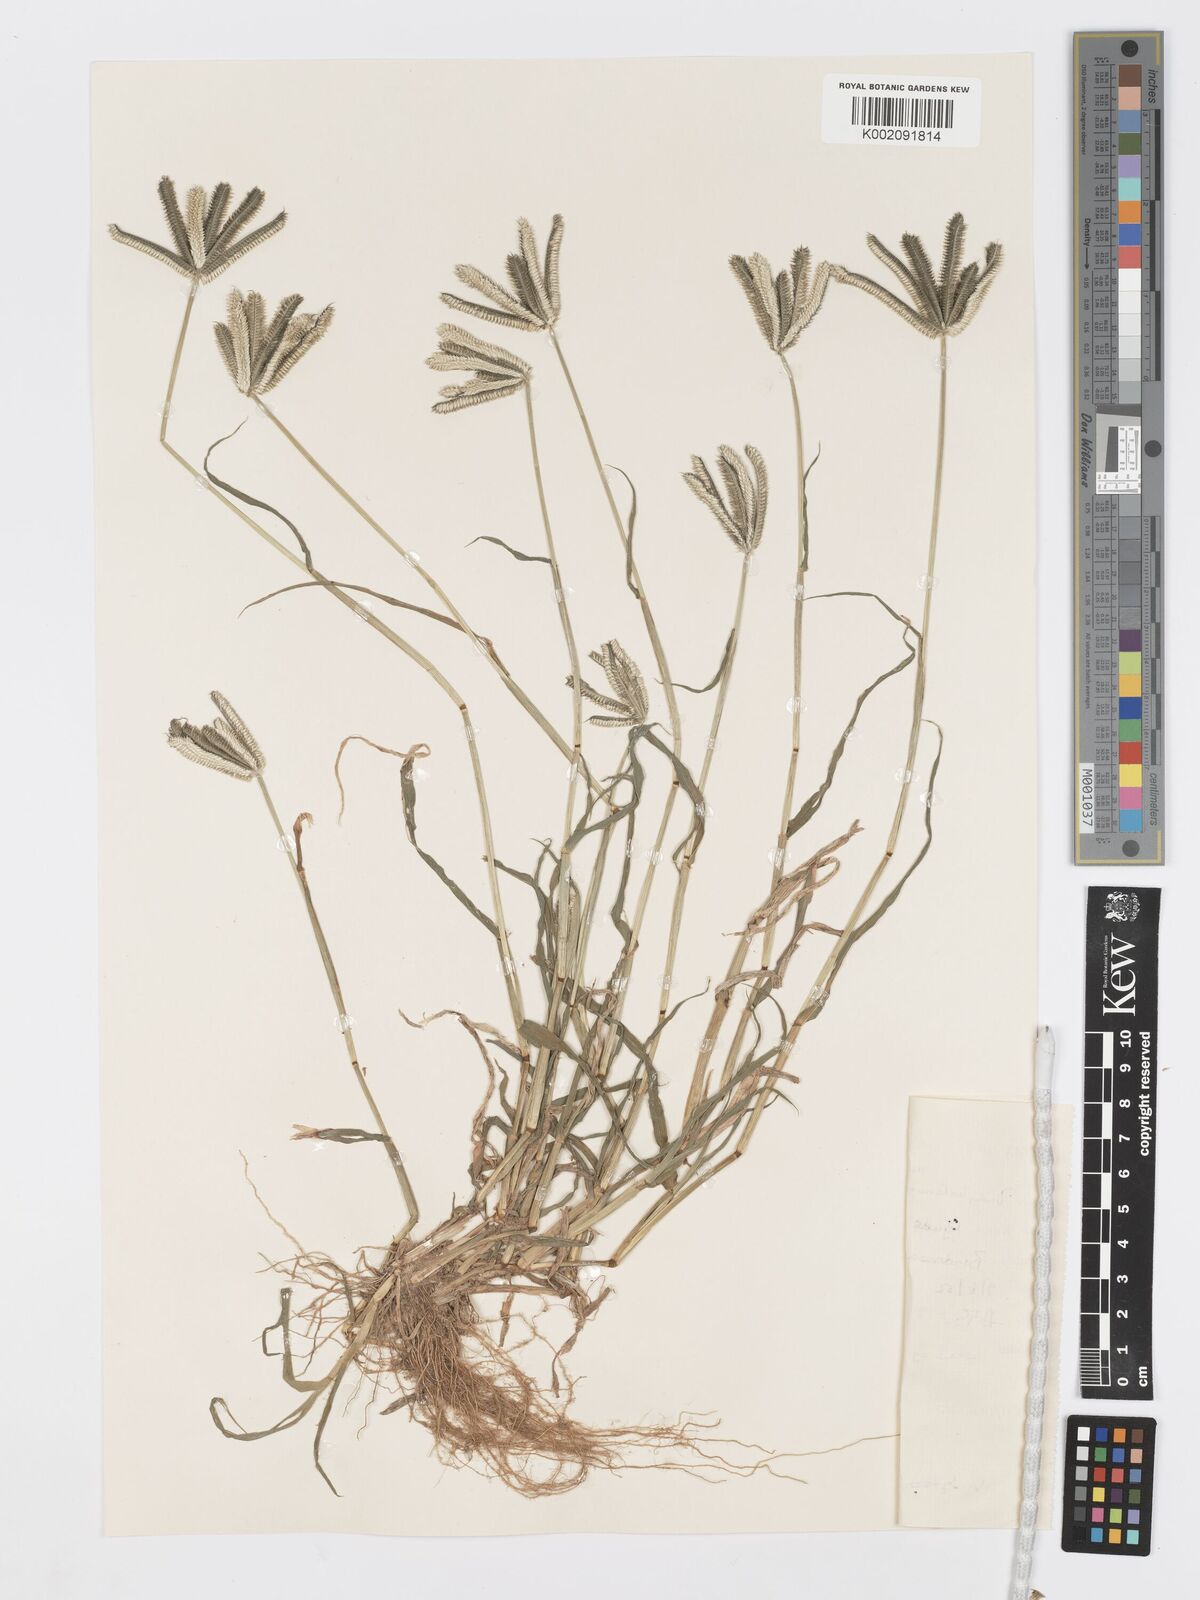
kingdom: Plantae
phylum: Tracheophyta
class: Liliopsida
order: Poales
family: Poaceae
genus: Dactyloctenium
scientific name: Dactyloctenium aegyptium
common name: Egyptian grass
